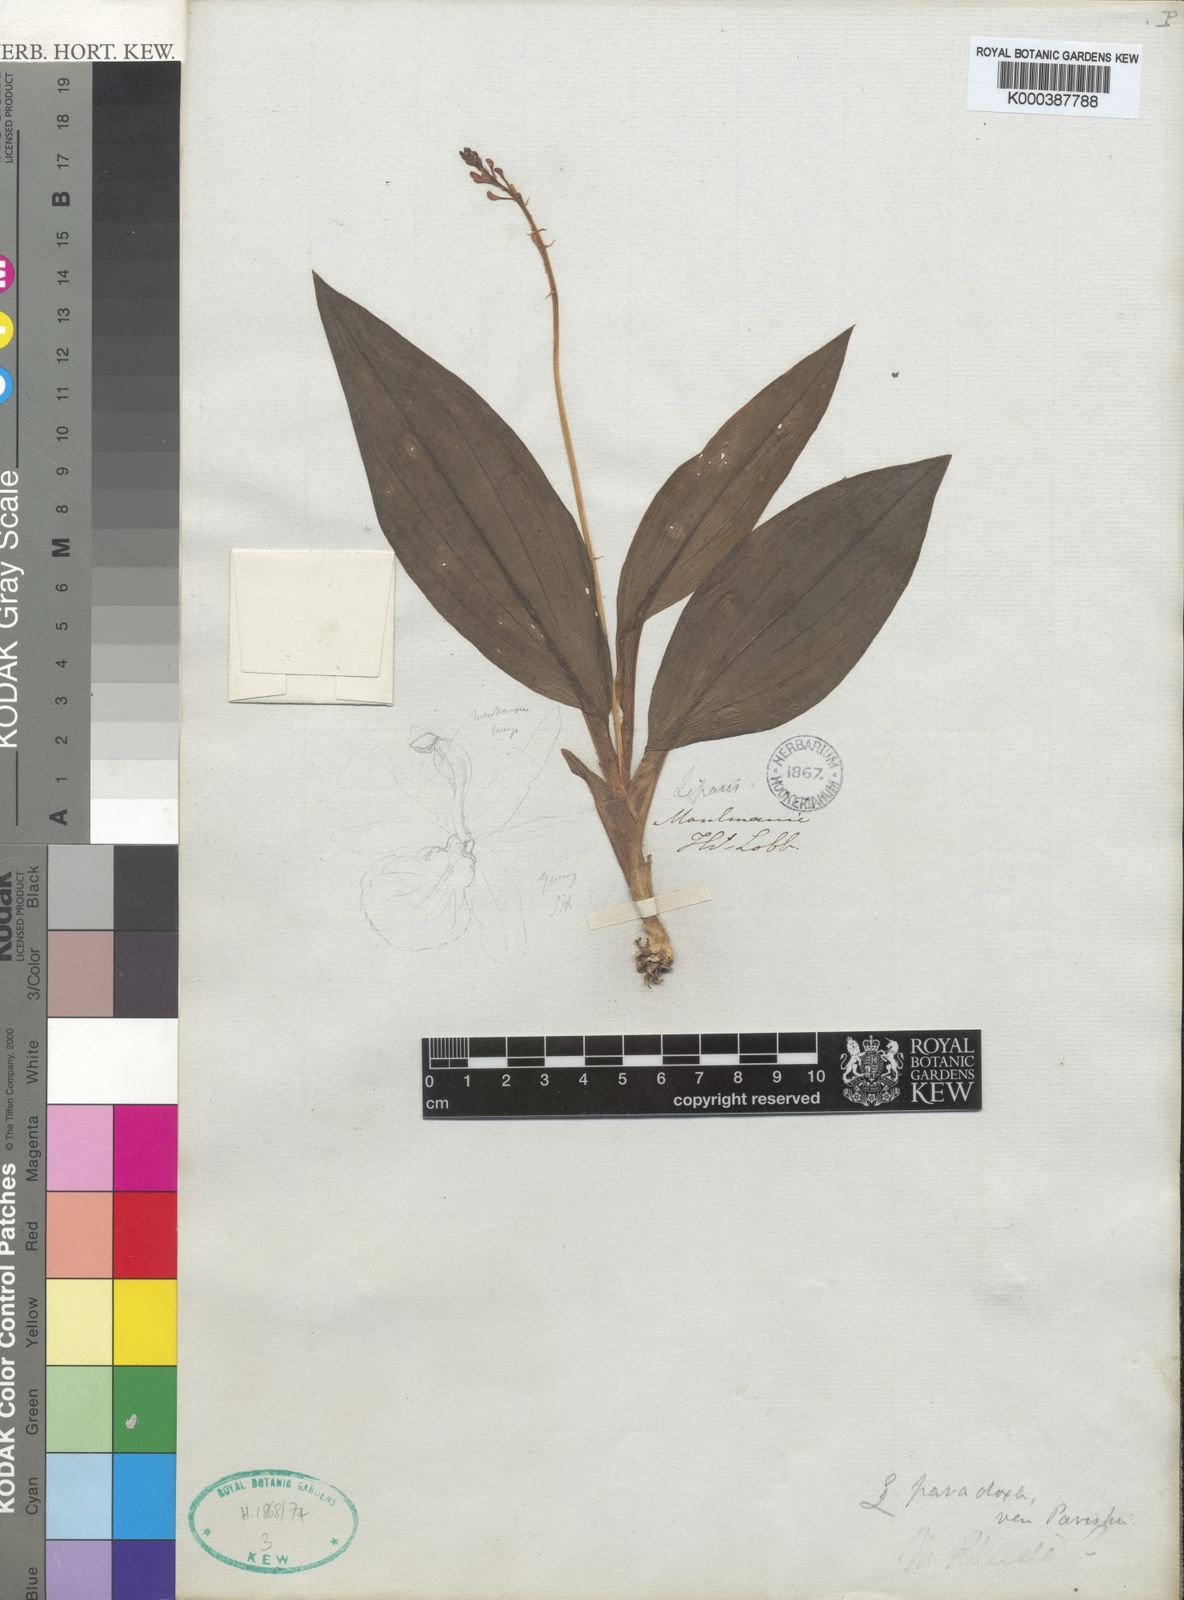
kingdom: Plantae
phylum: Tracheophyta
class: Liliopsida
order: Asparagales
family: Orchidaceae
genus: Liparis
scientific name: Liparis odorata
